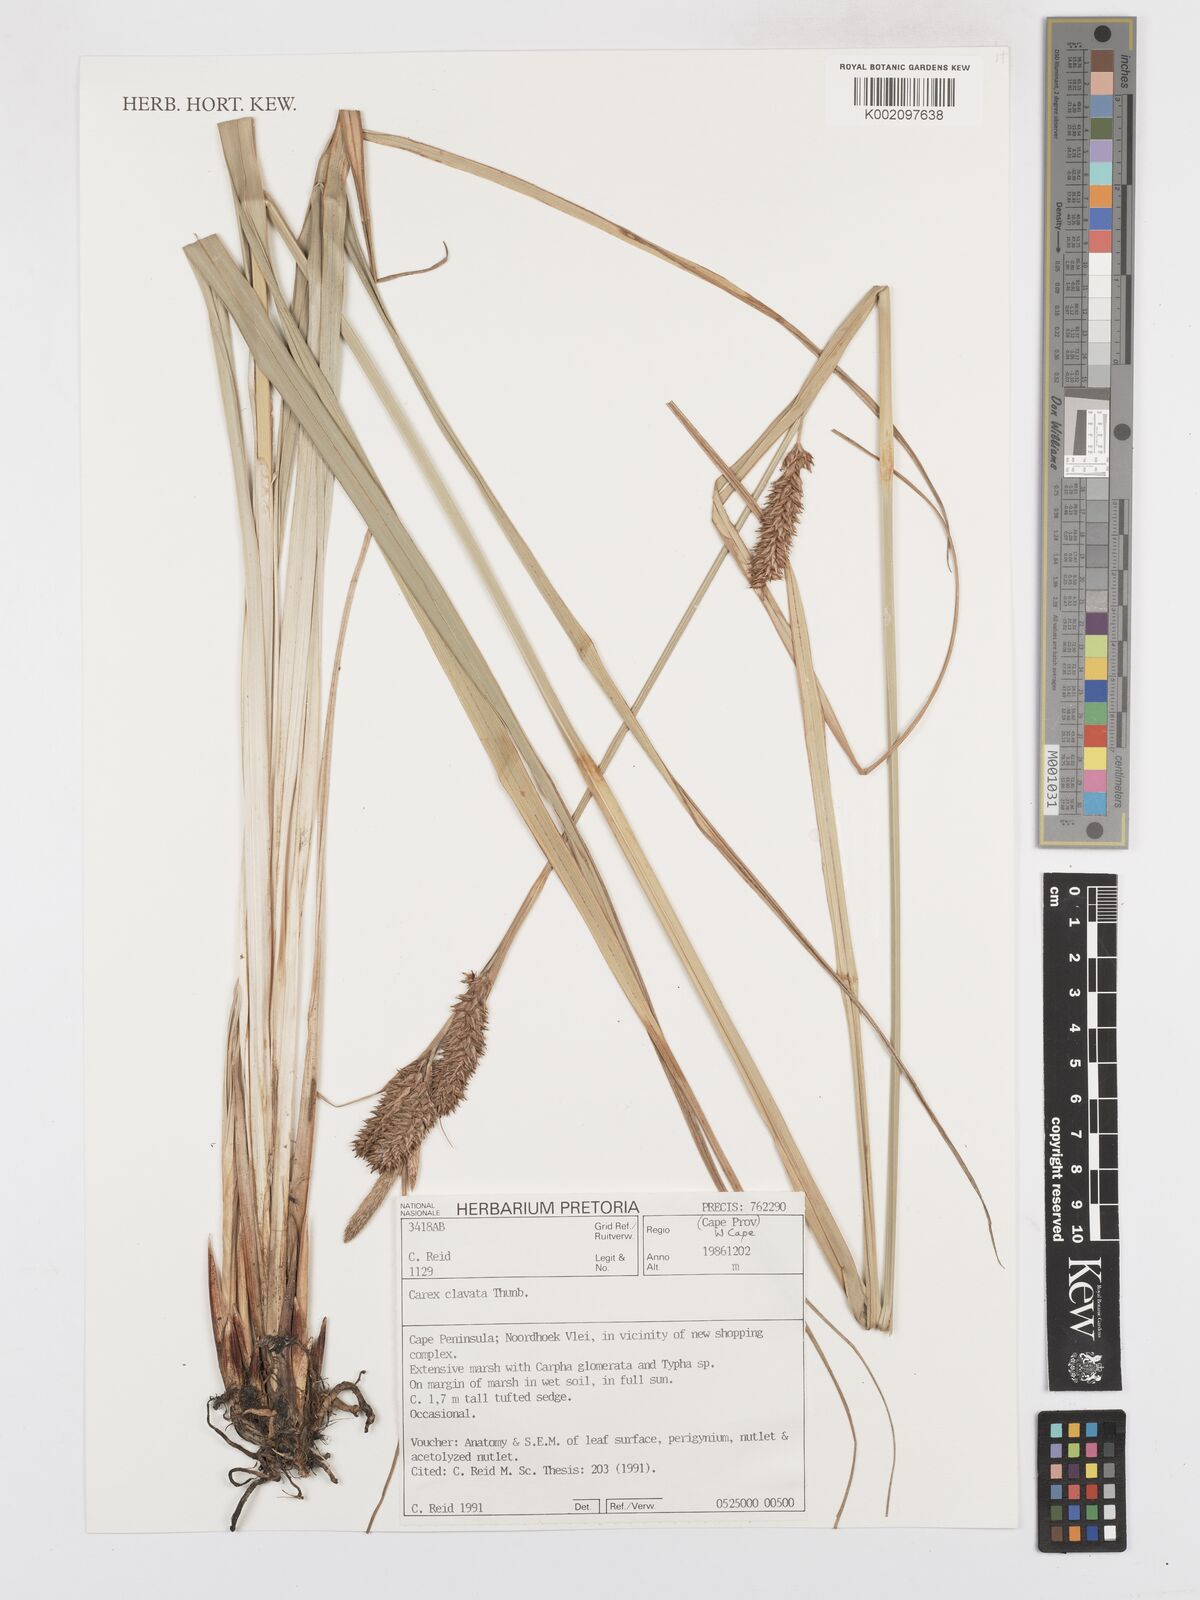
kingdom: Plantae
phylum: Tracheophyta
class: Liliopsida
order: Poales
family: Cyperaceae
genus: Carex
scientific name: Carex clavata
